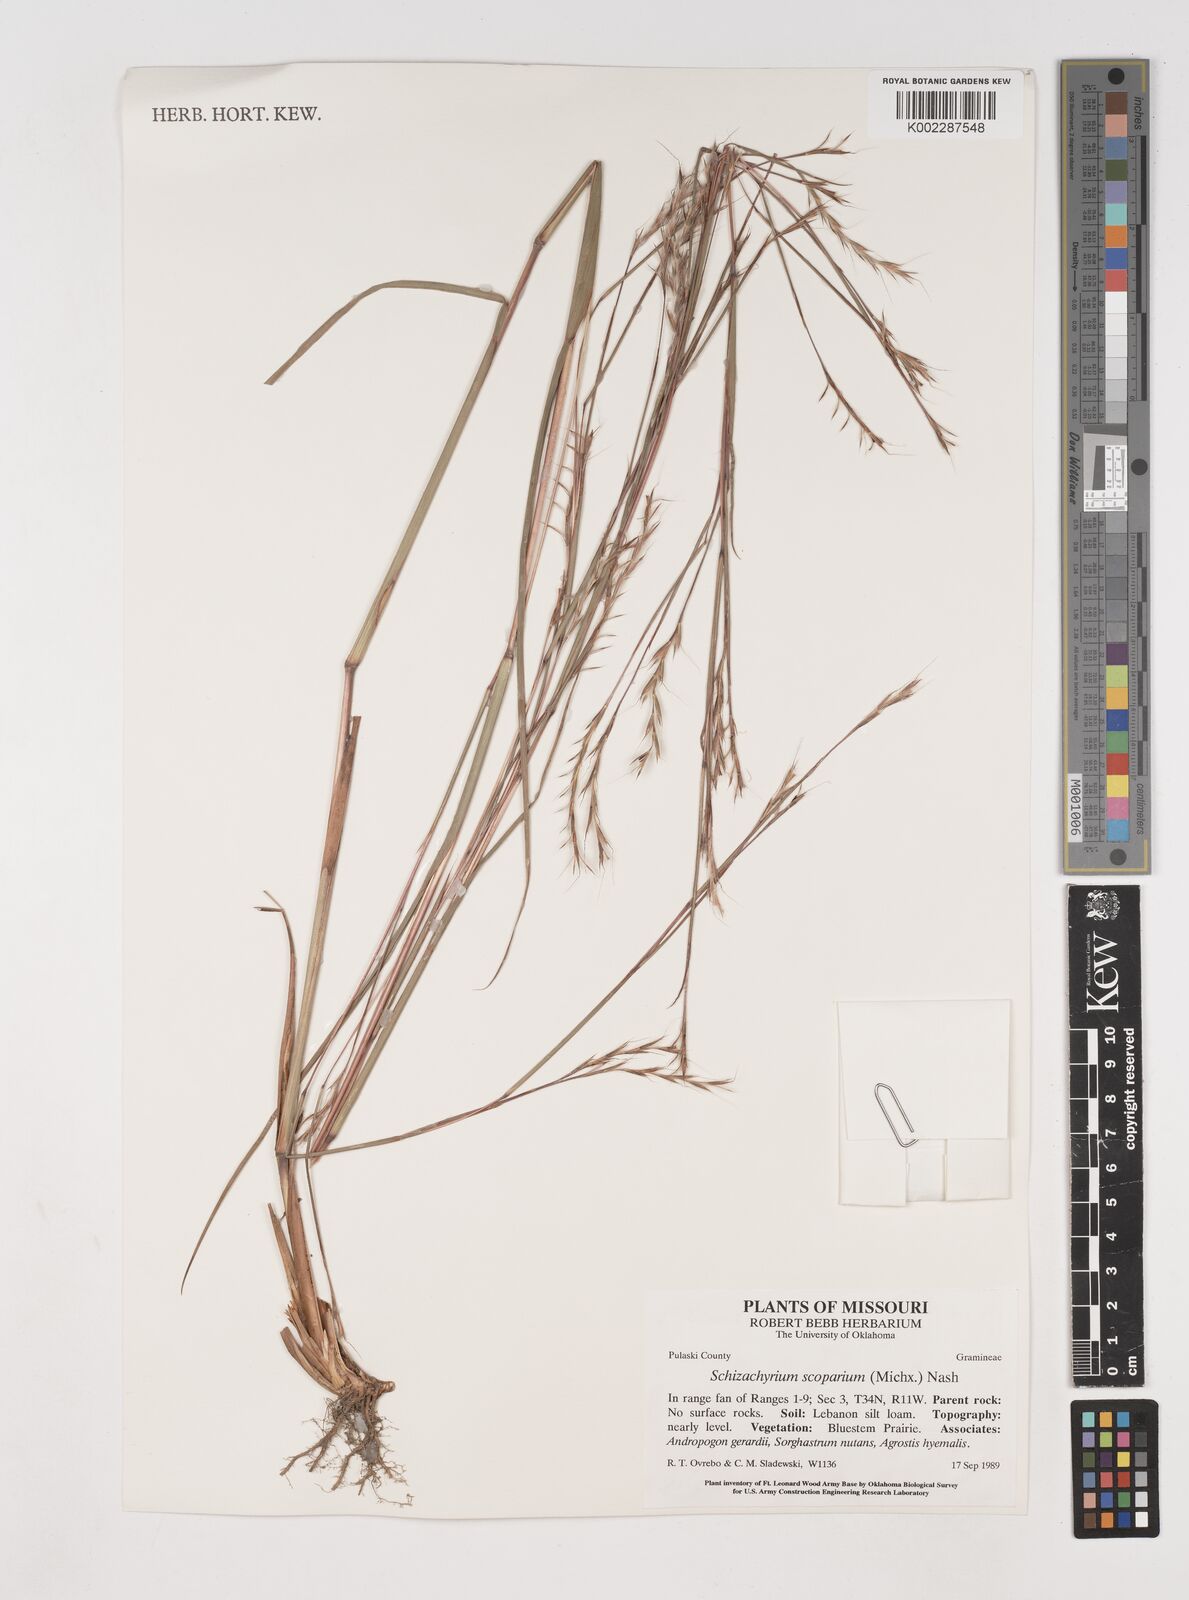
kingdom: Plantae
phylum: Tracheophyta
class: Liliopsida
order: Poales
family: Poaceae
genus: Schizachyrium
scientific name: Schizachyrium scoparium
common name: Little bluestem
